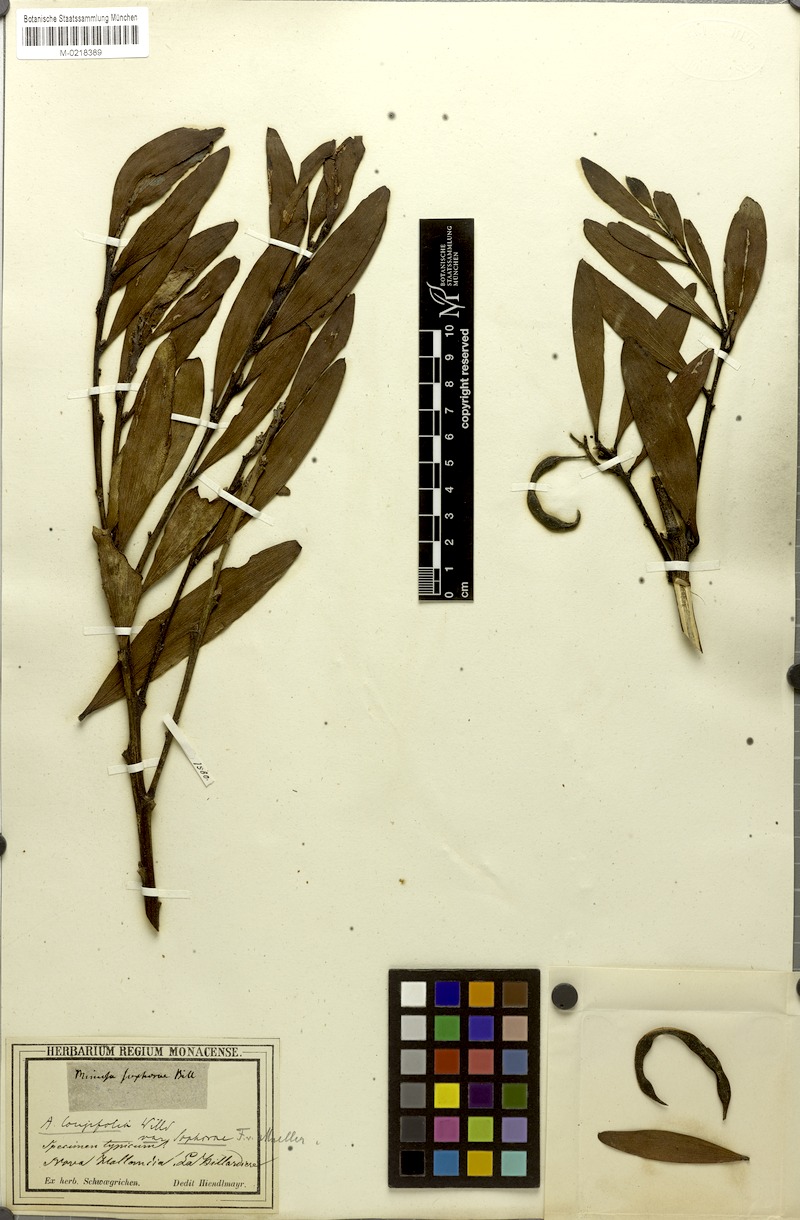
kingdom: Plantae
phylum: Tracheophyta
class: Magnoliopsida
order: Fabales
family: Fabaceae
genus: Acacia
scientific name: Acacia longifolia
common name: Sydney golden wattle
